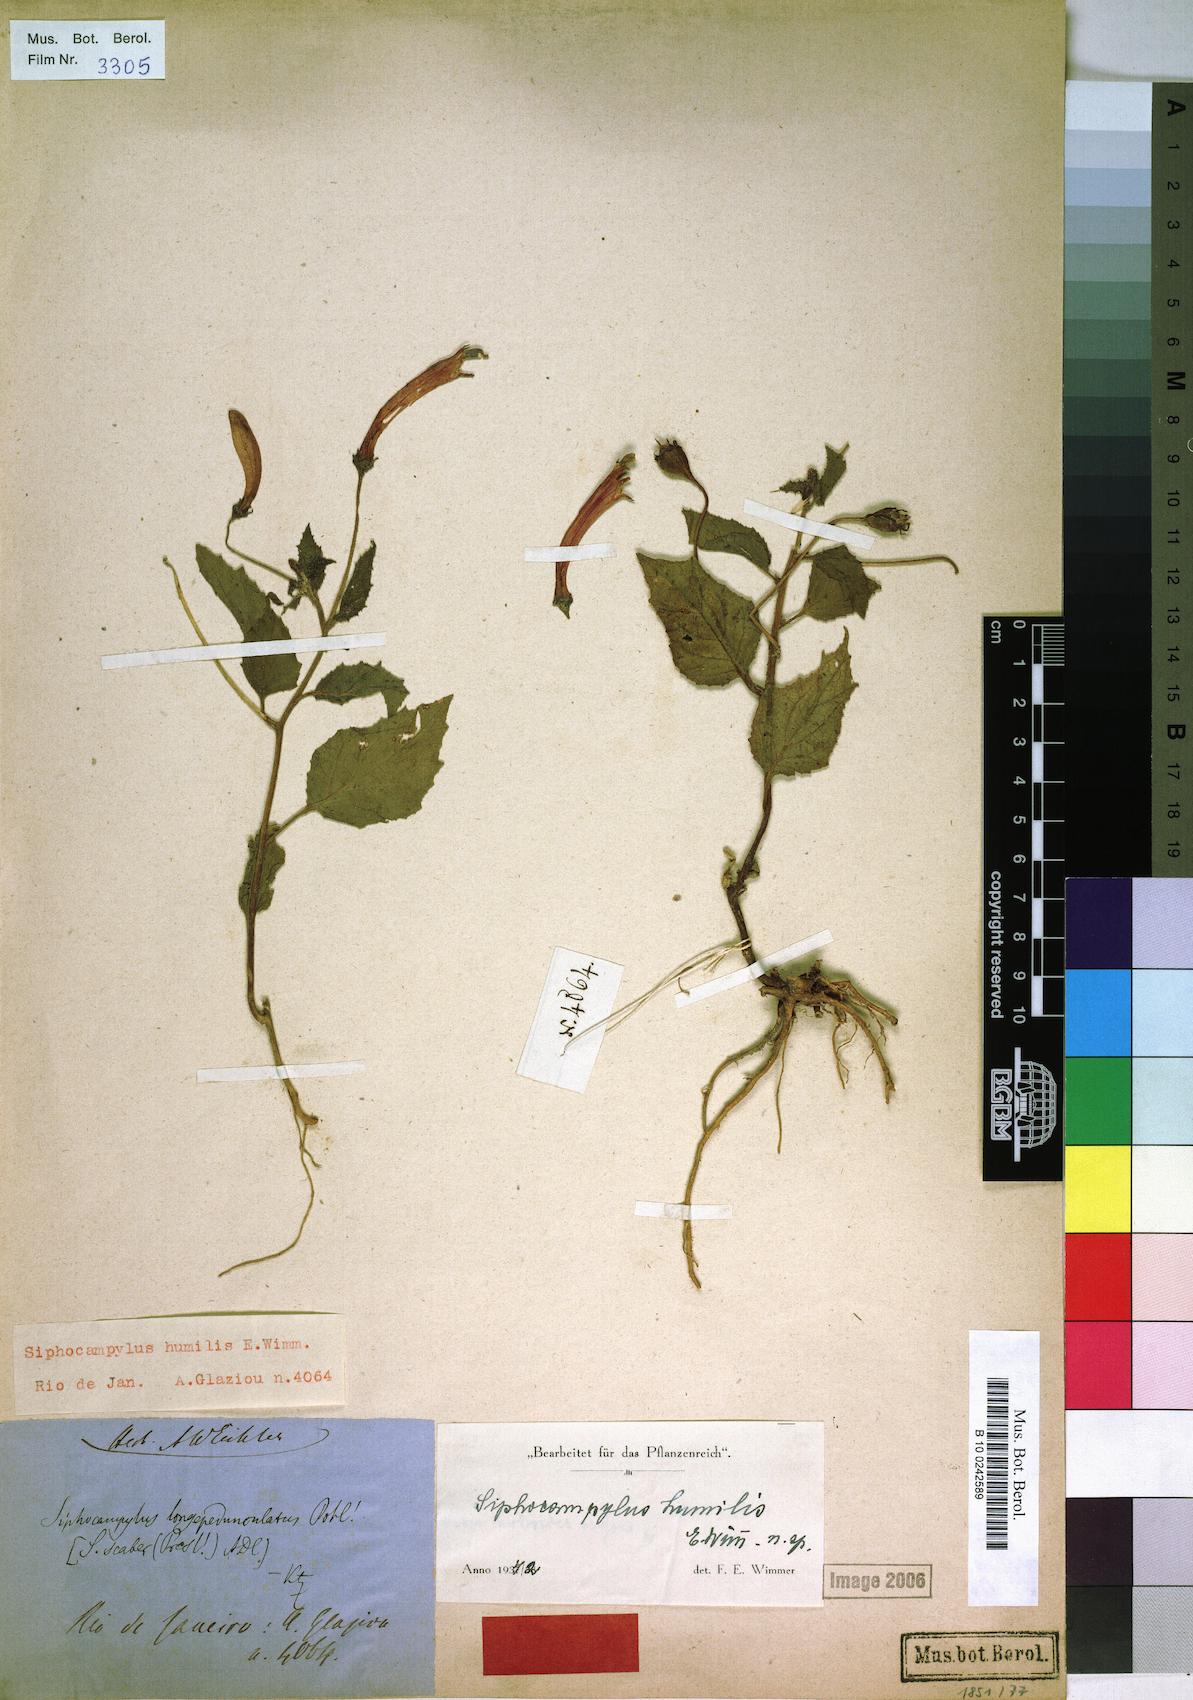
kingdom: Plantae
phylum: Tracheophyta
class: Magnoliopsida
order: Asterales
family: Campanulaceae
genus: Siphocampylus
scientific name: Siphocampylus humilis
